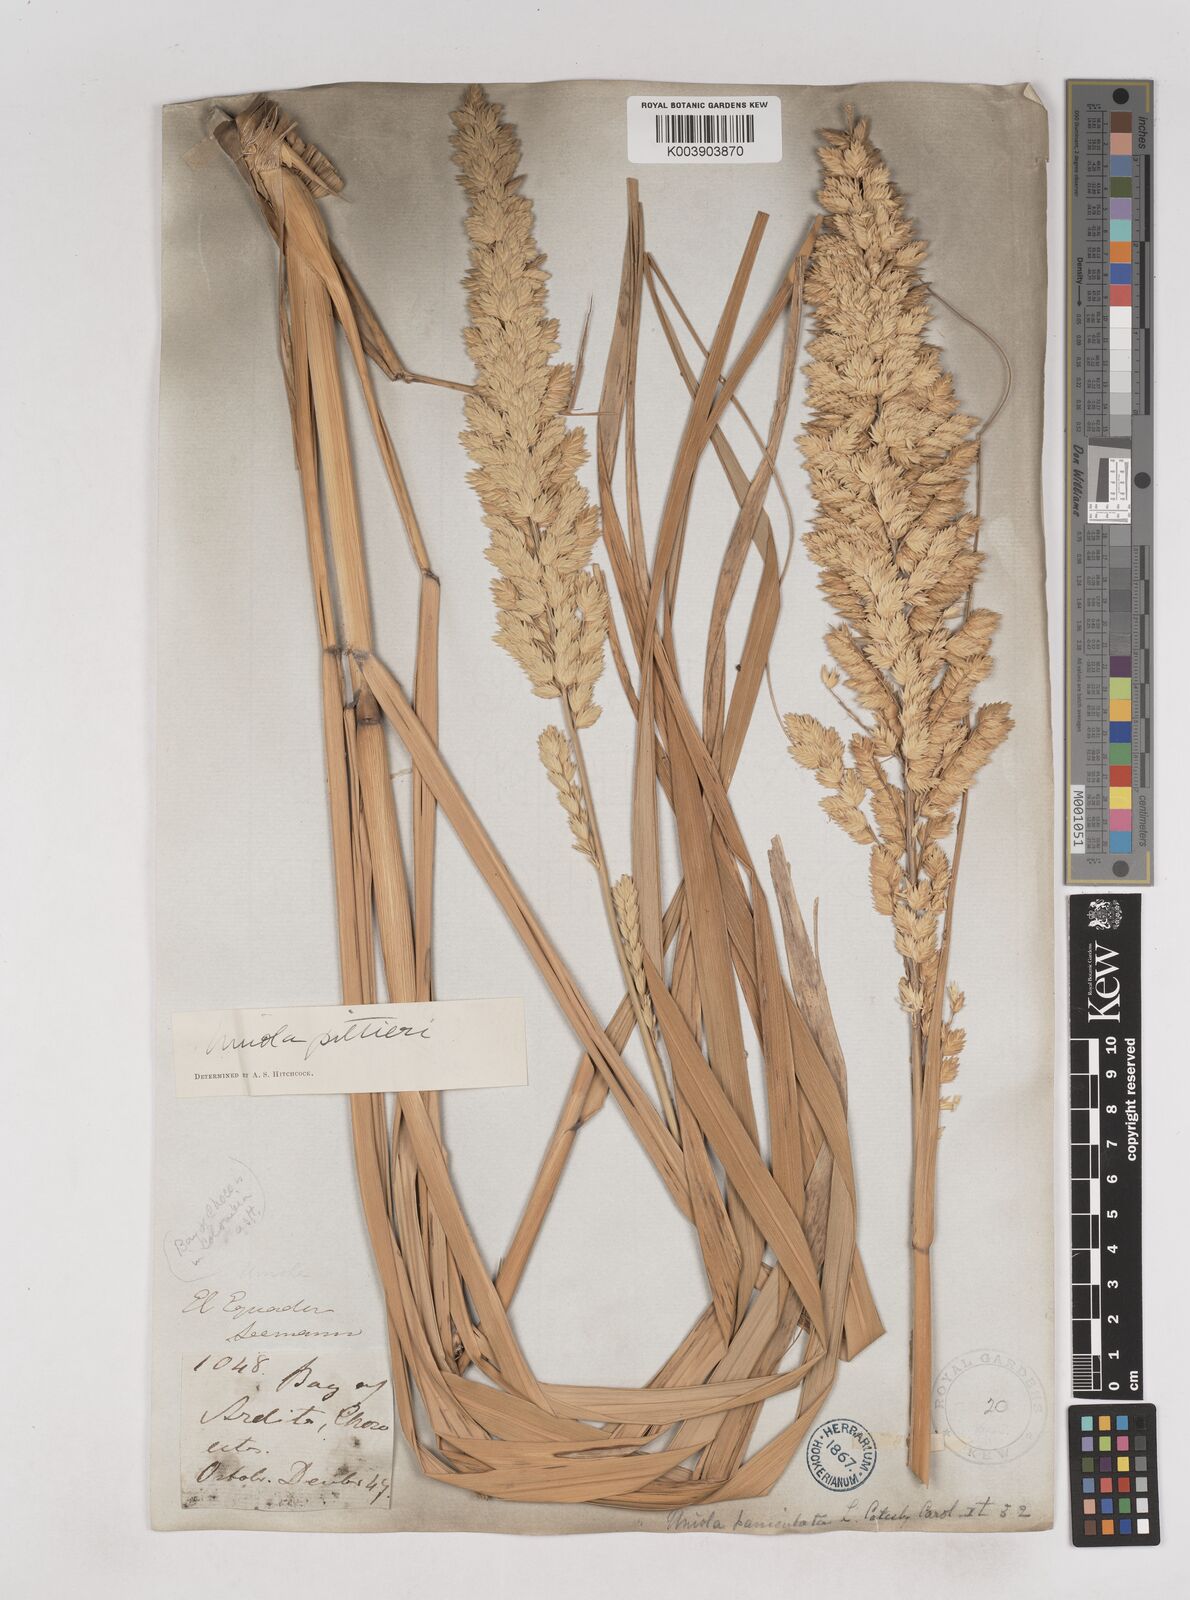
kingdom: Plantae
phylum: Tracheophyta
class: Liliopsida
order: Poales
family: Poaceae
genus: Uniola
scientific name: Uniola pittieri
